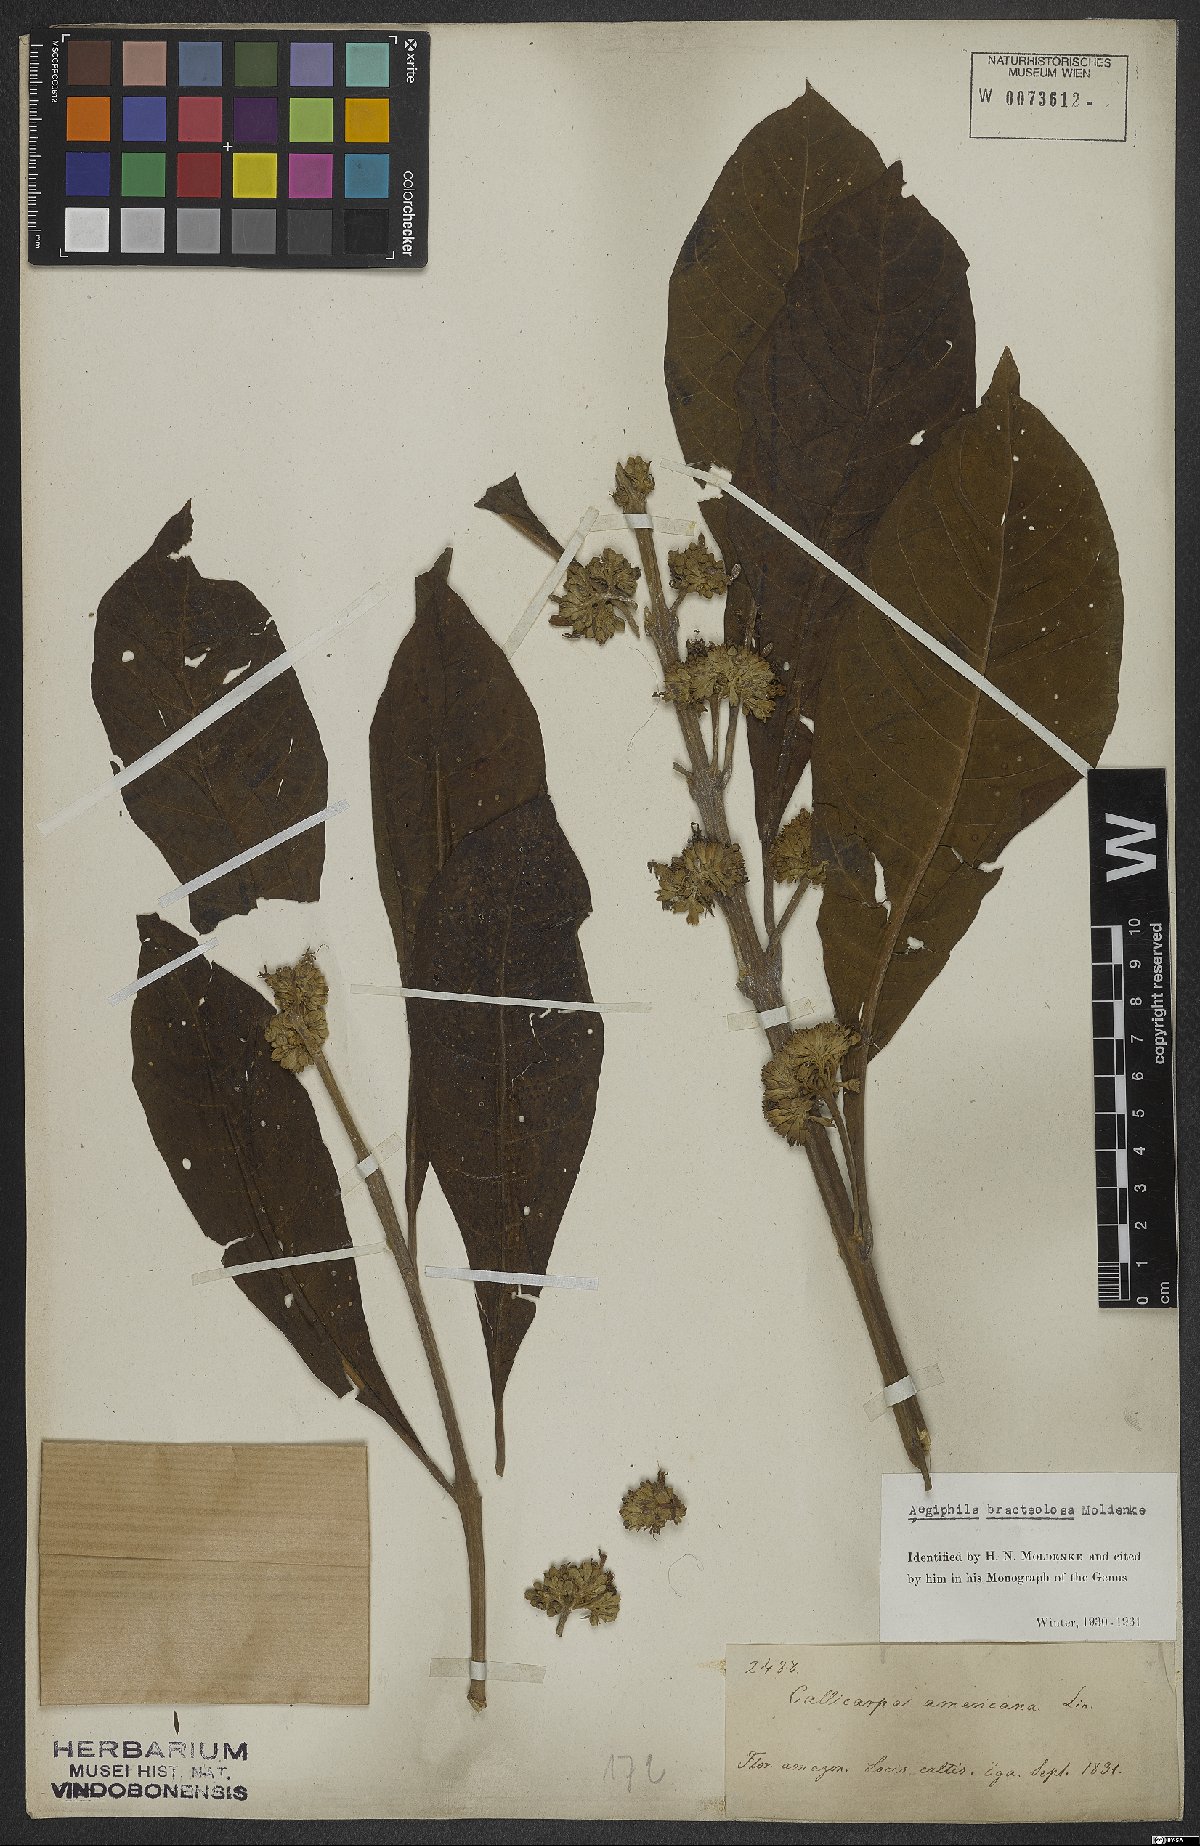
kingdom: Plantae
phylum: Tracheophyta
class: Magnoliopsida
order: Lamiales
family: Lamiaceae
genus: Aegiphila
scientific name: Aegiphila bracteolosa
